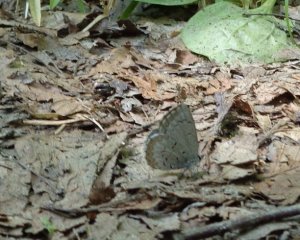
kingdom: Animalia
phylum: Arthropoda
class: Insecta
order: Lepidoptera
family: Lycaenidae
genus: Celastrina
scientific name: Celastrina lucia
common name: Northern Spring Azure
